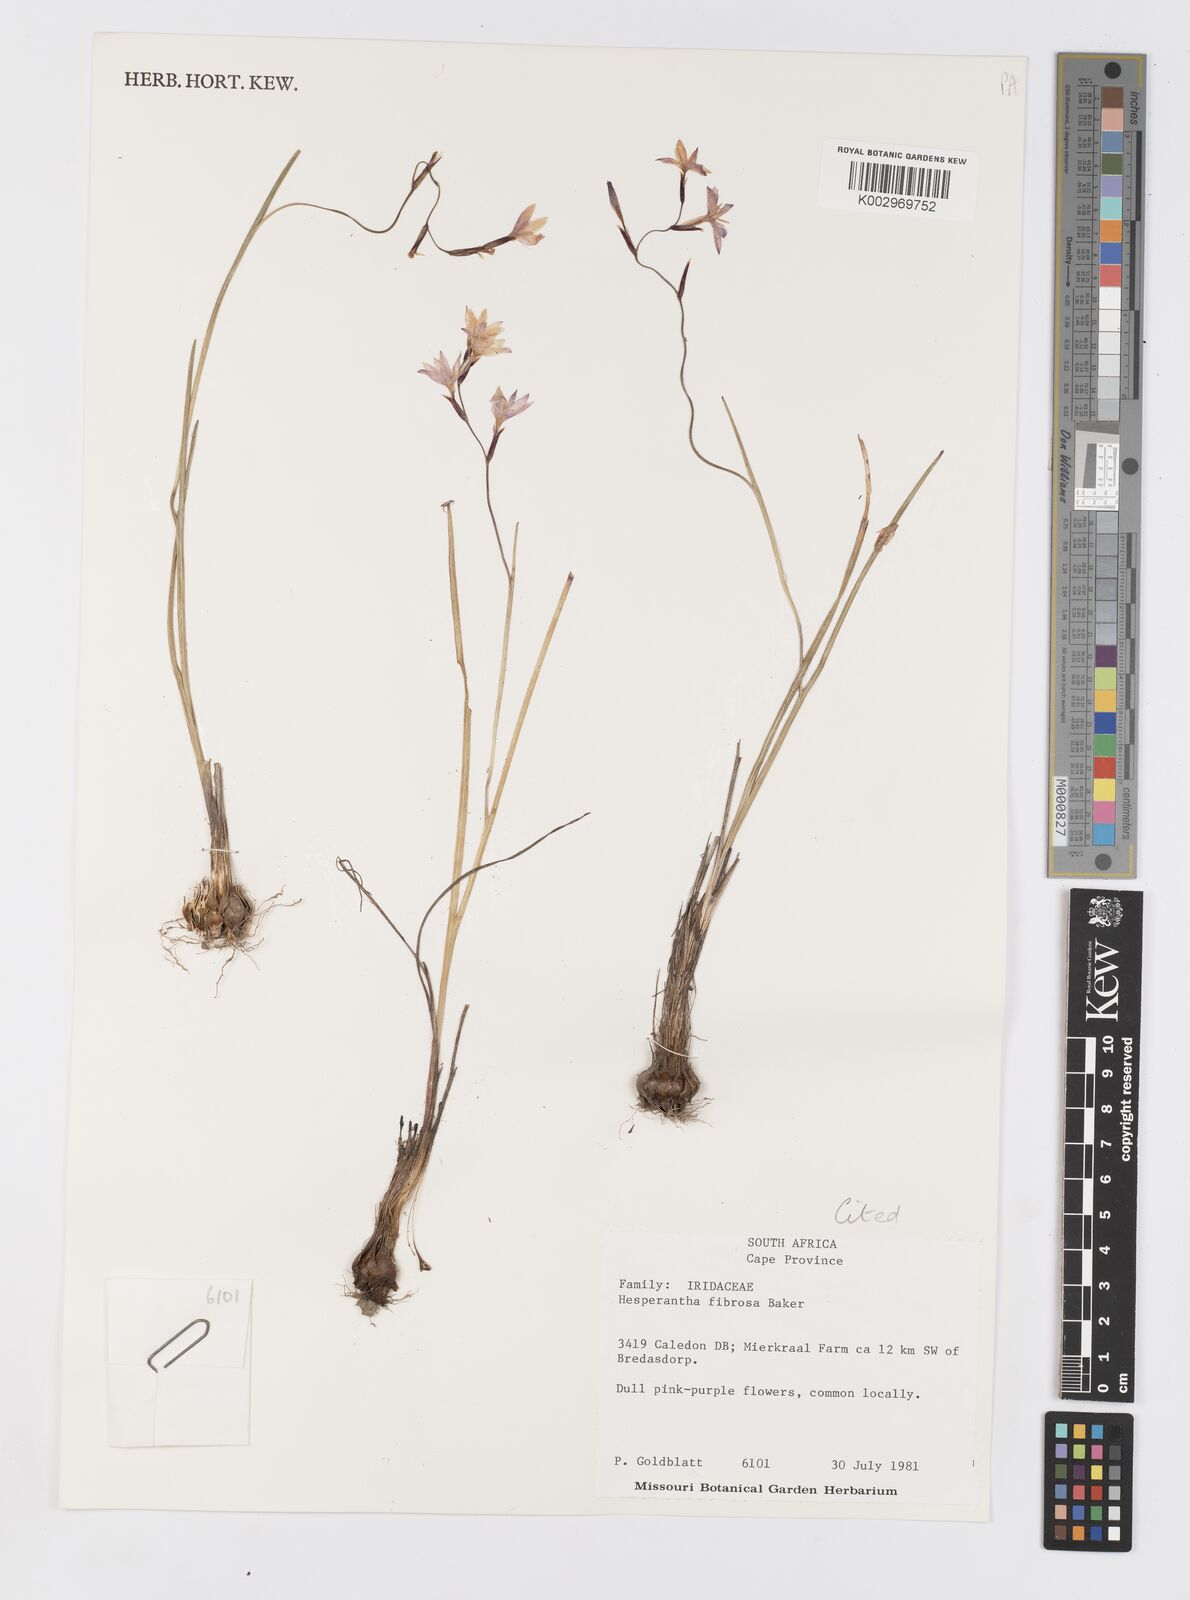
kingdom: Plantae
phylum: Tracheophyta
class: Liliopsida
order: Asparagales
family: Iridaceae
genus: Hesperantha
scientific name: Hesperantha fibrosa
